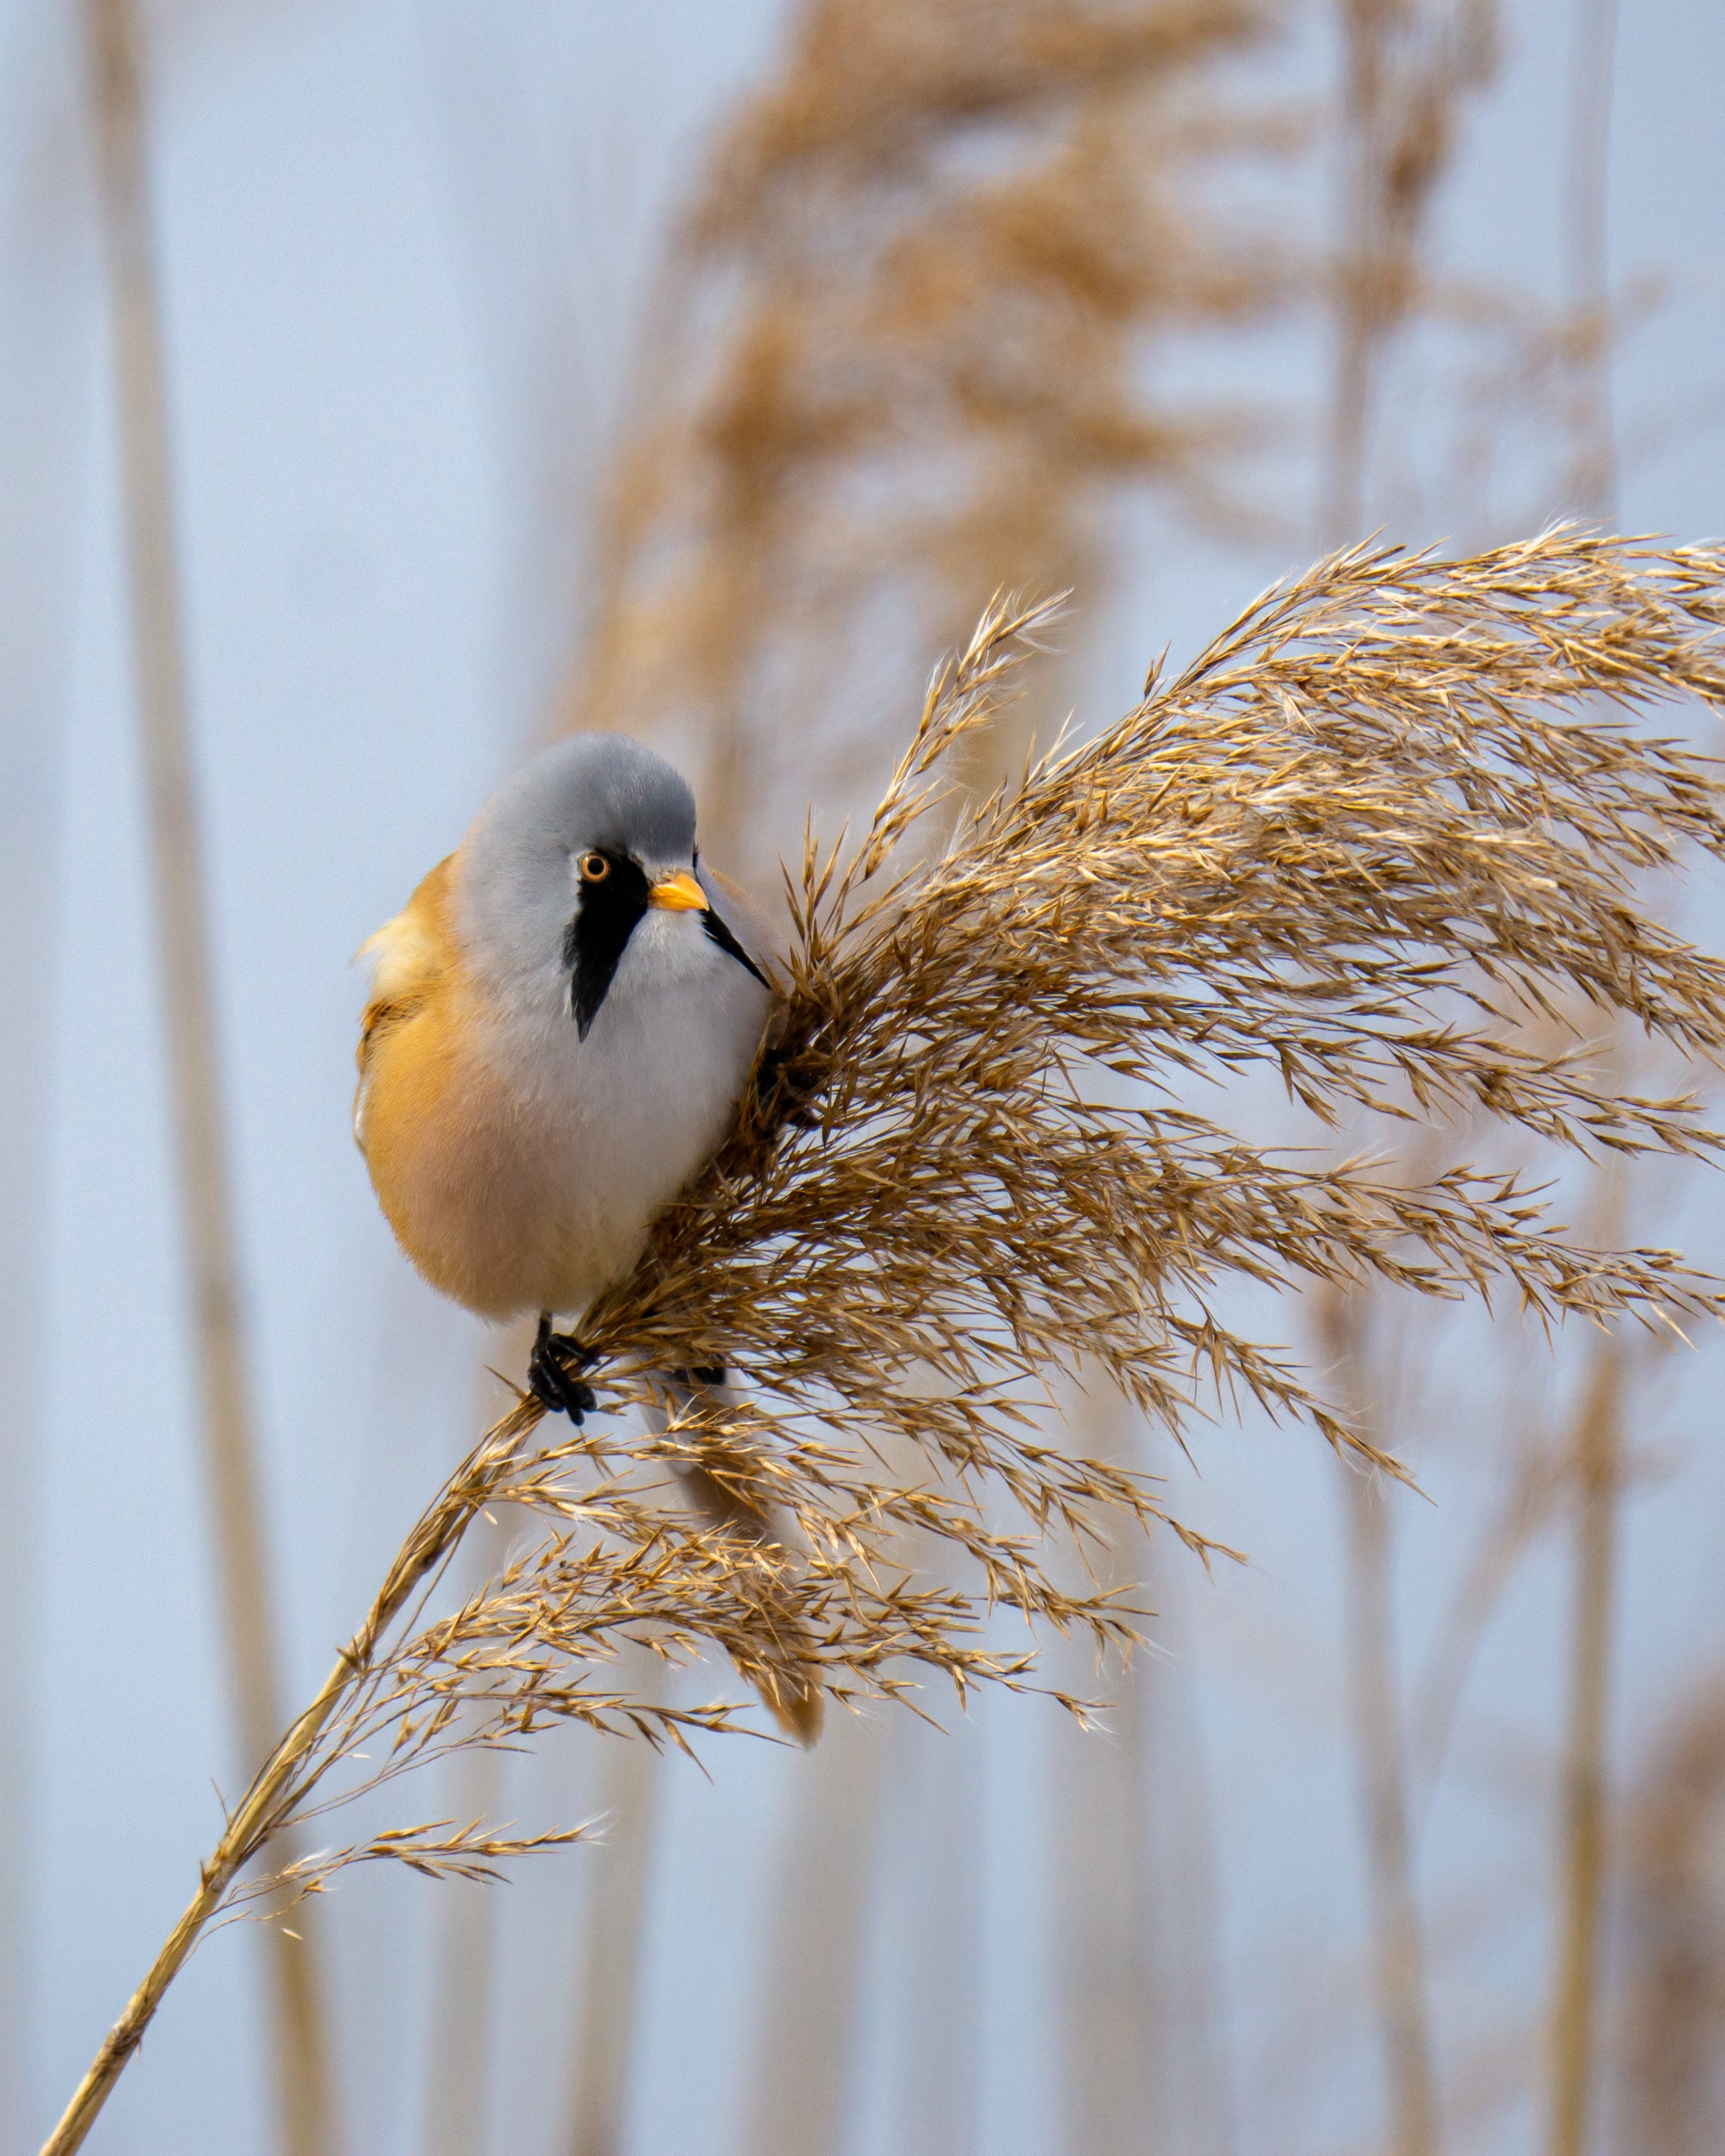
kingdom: Animalia
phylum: Chordata
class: Aves
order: Passeriformes
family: Panuridae
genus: Panurus
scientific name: Panurus biarmicus
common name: Skægmejse
